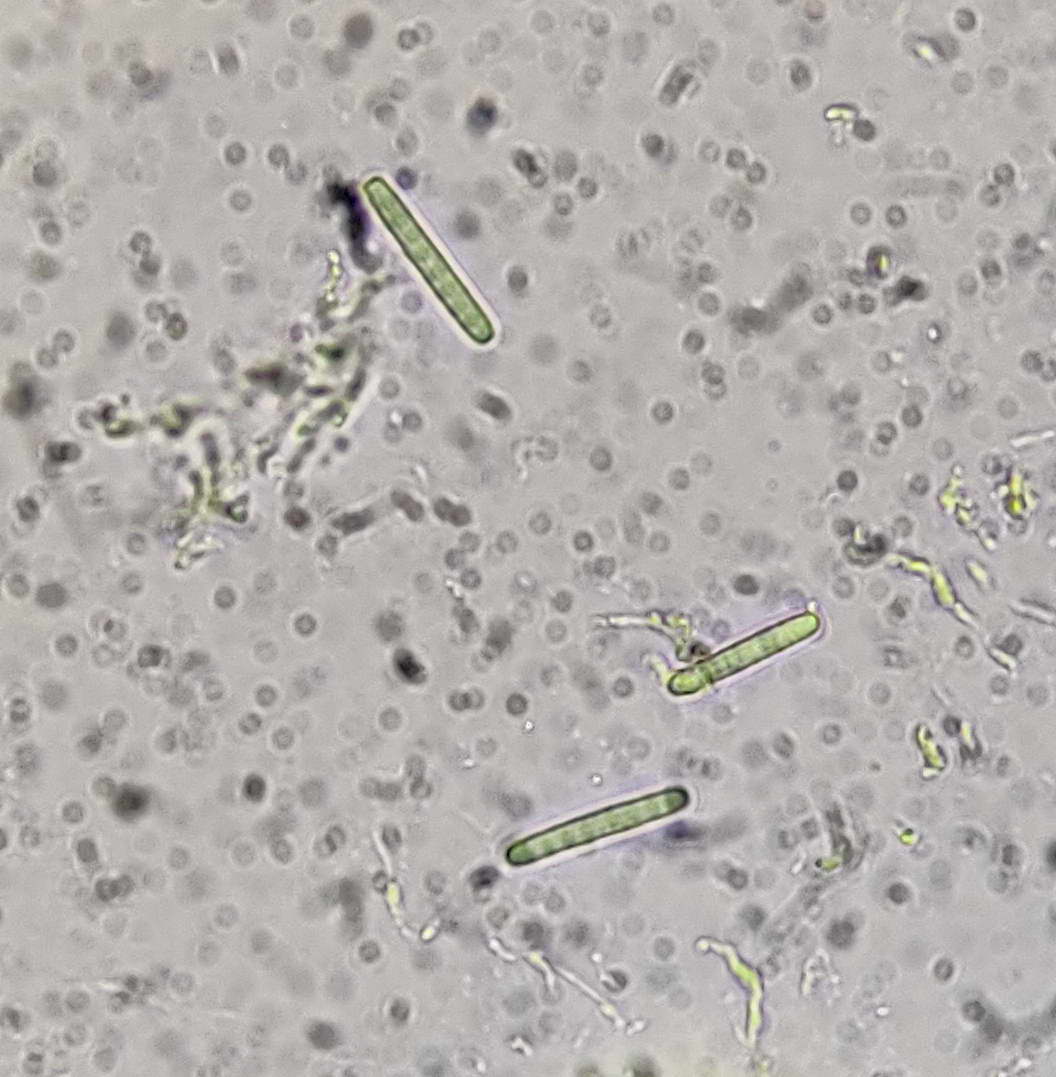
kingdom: Fungi
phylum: Ascomycota
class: Sordariomycetes
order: Hypocreales
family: Ophiocordycipitaceae
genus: Tolypocladium
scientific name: Tolypocladium capitatum
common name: højstokket snyltekølle
